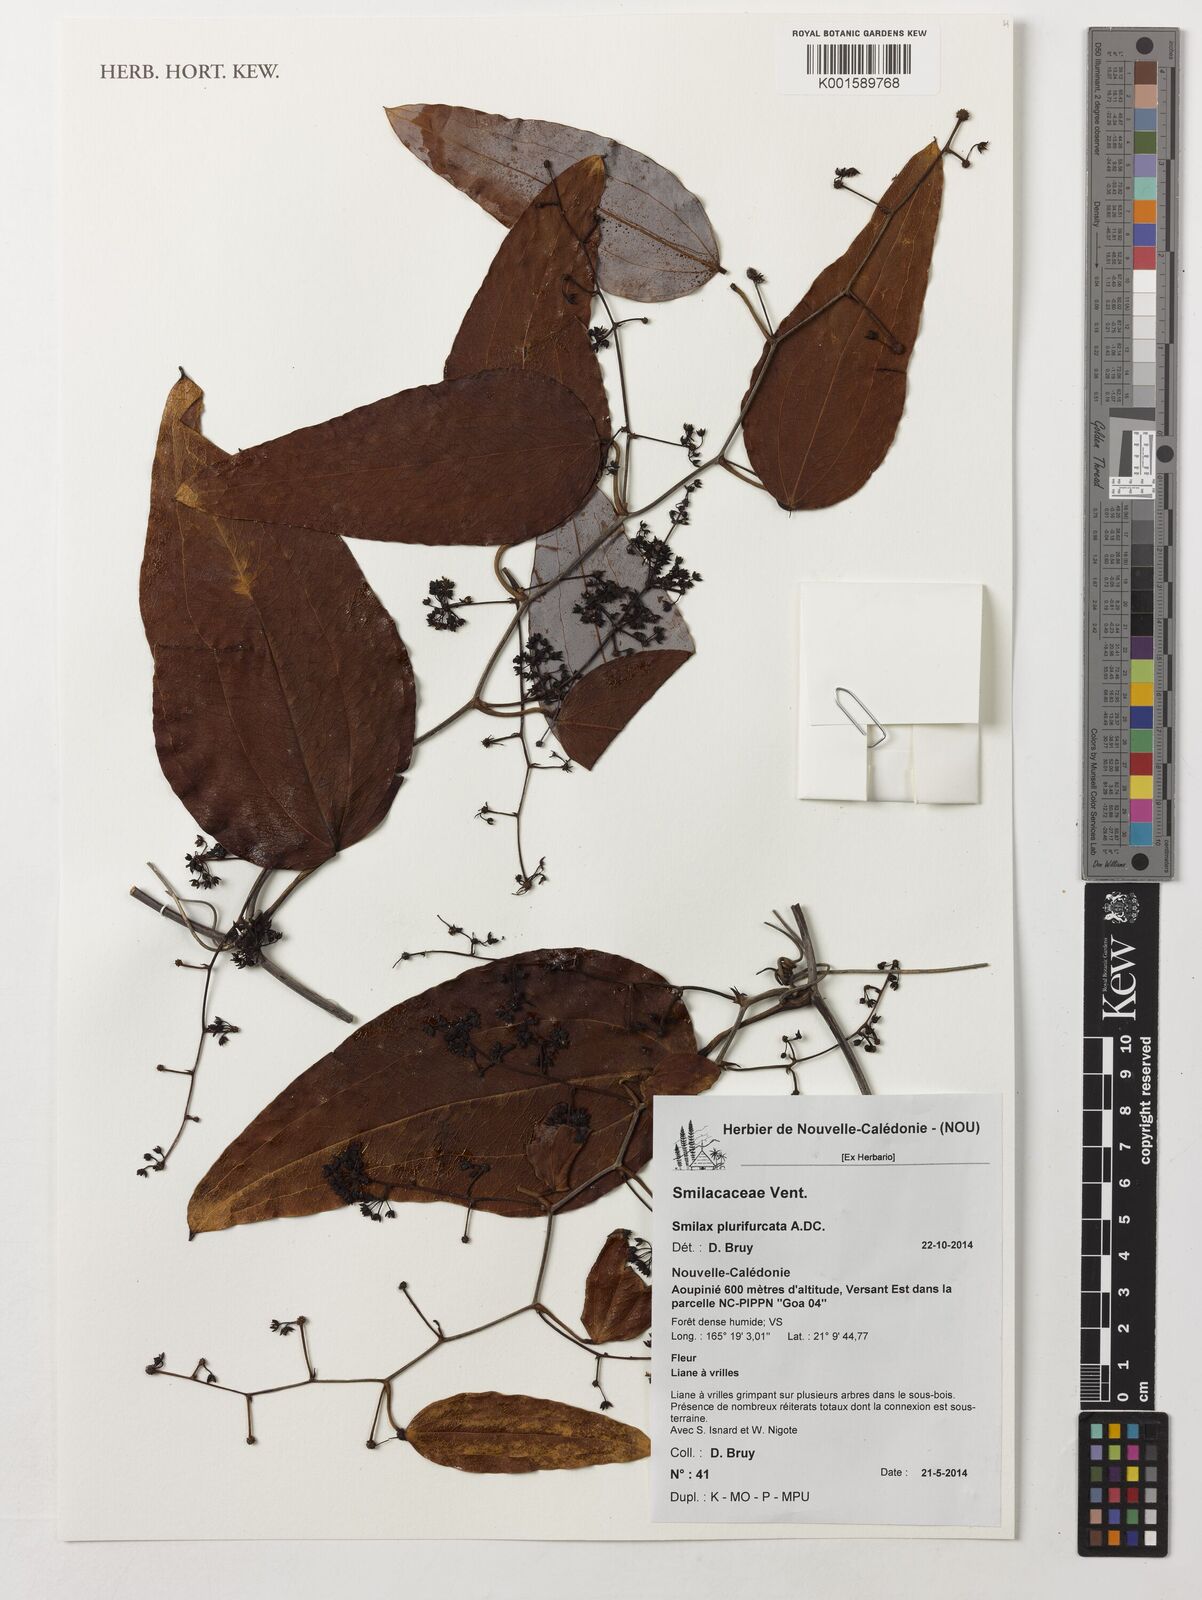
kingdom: Plantae
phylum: Tracheophyta
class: Liliopsida
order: Liliales
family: Smilacaceae
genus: Smilax
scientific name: Smilax plurifurcata
